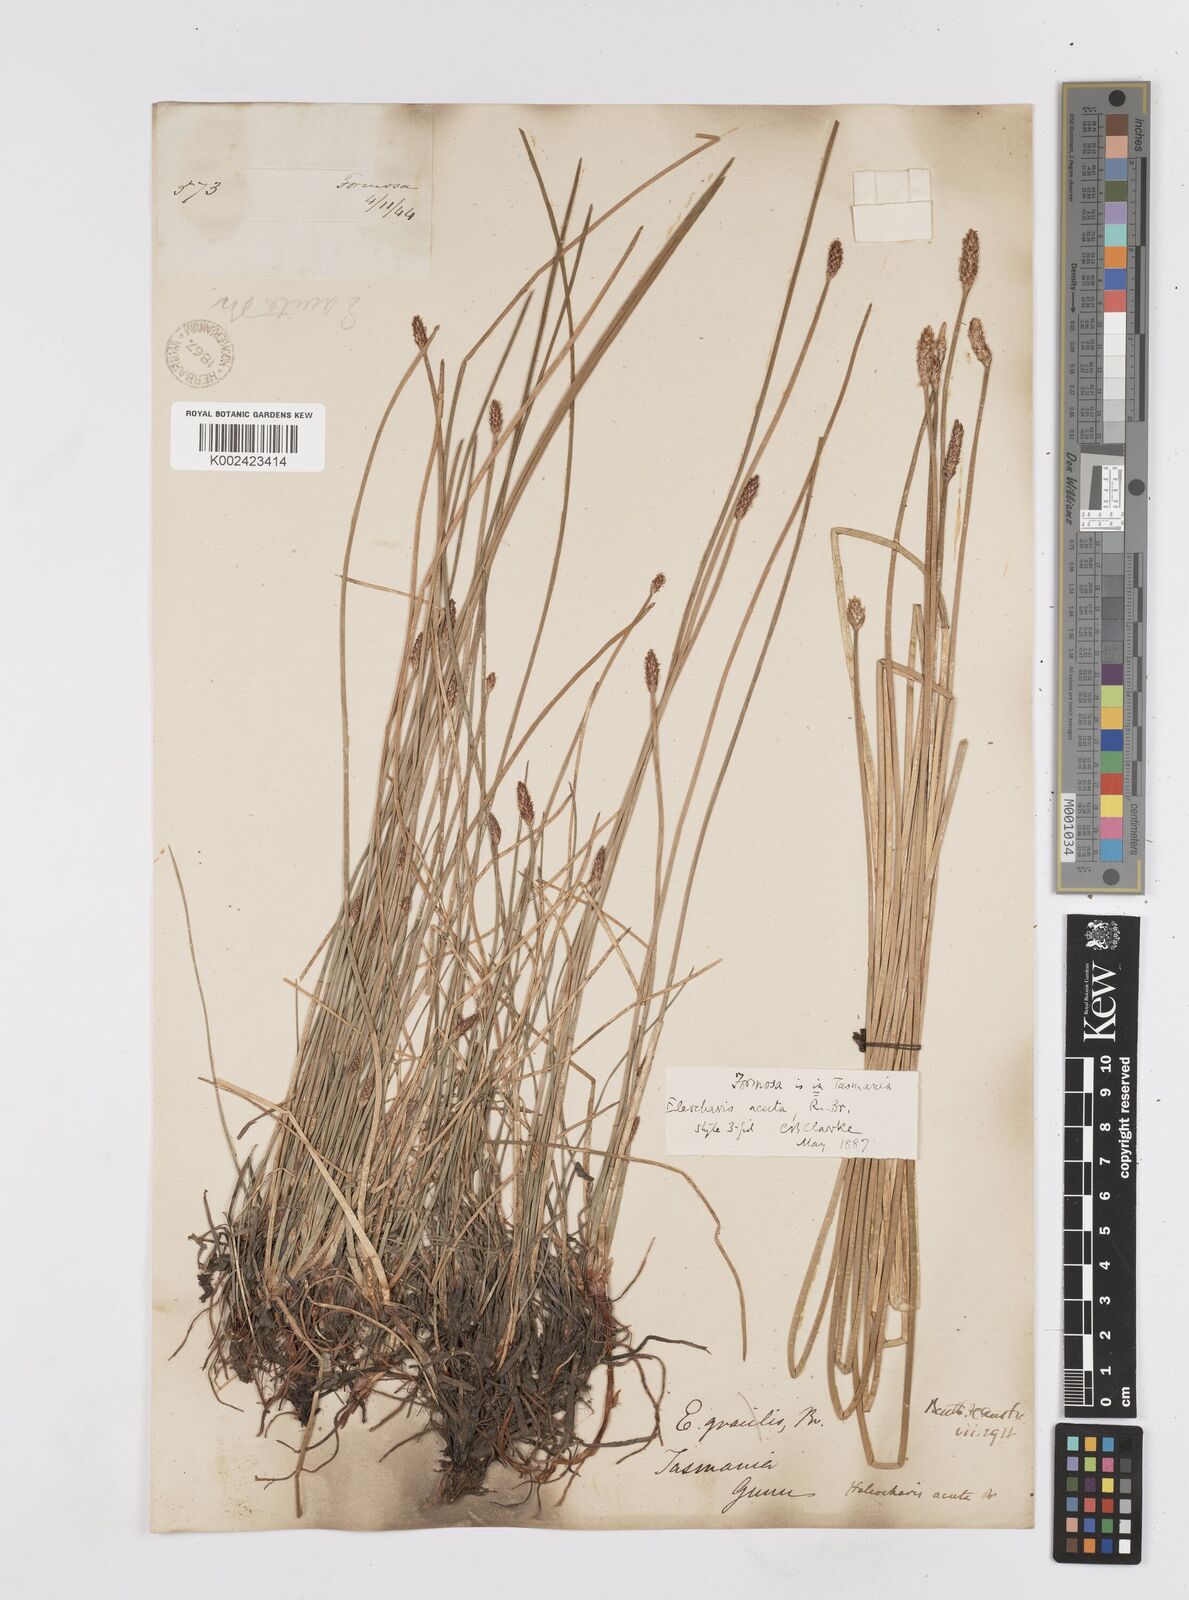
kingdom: Plantae
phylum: Tracheophyta
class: Liliopsida
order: Poales
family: Cyperaceae
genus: Eleocharis
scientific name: Eleocharis acuta
